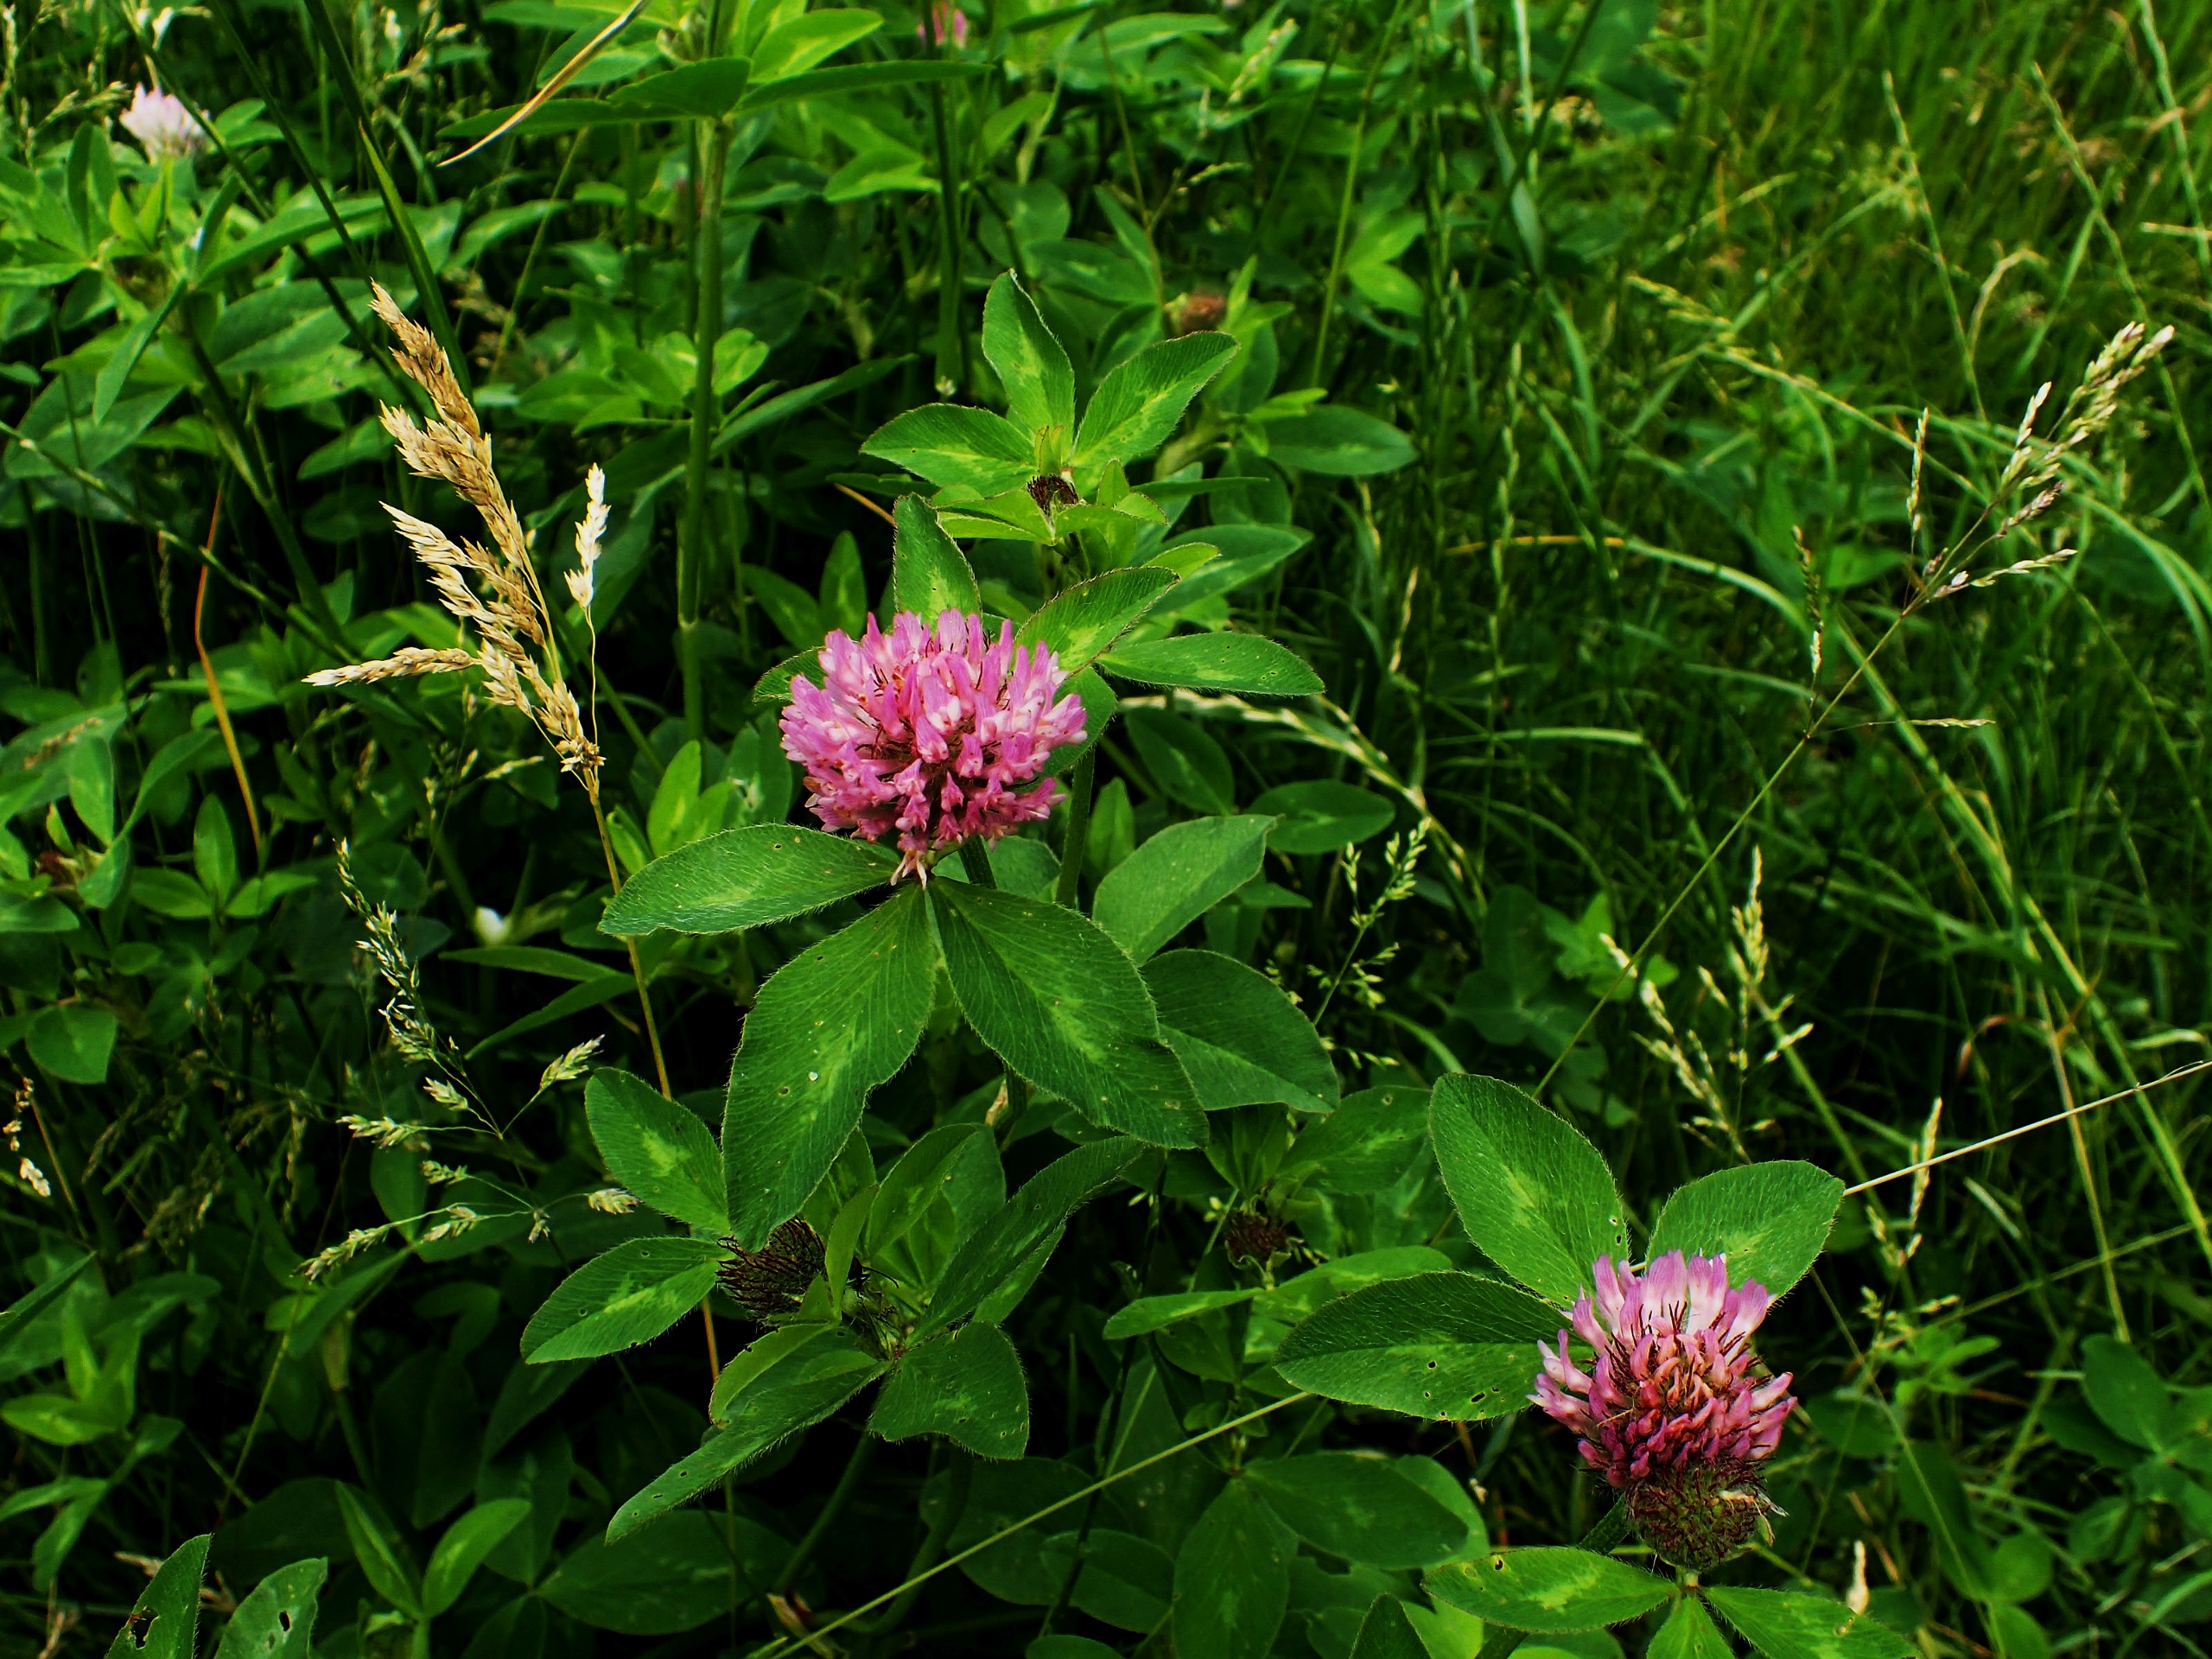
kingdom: Plantae
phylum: Tracheophyta
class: Magnoliopsida
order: Fabales
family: Fabaceae
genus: Trifolium
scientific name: Trifolium pratense
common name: Rød-kløver
